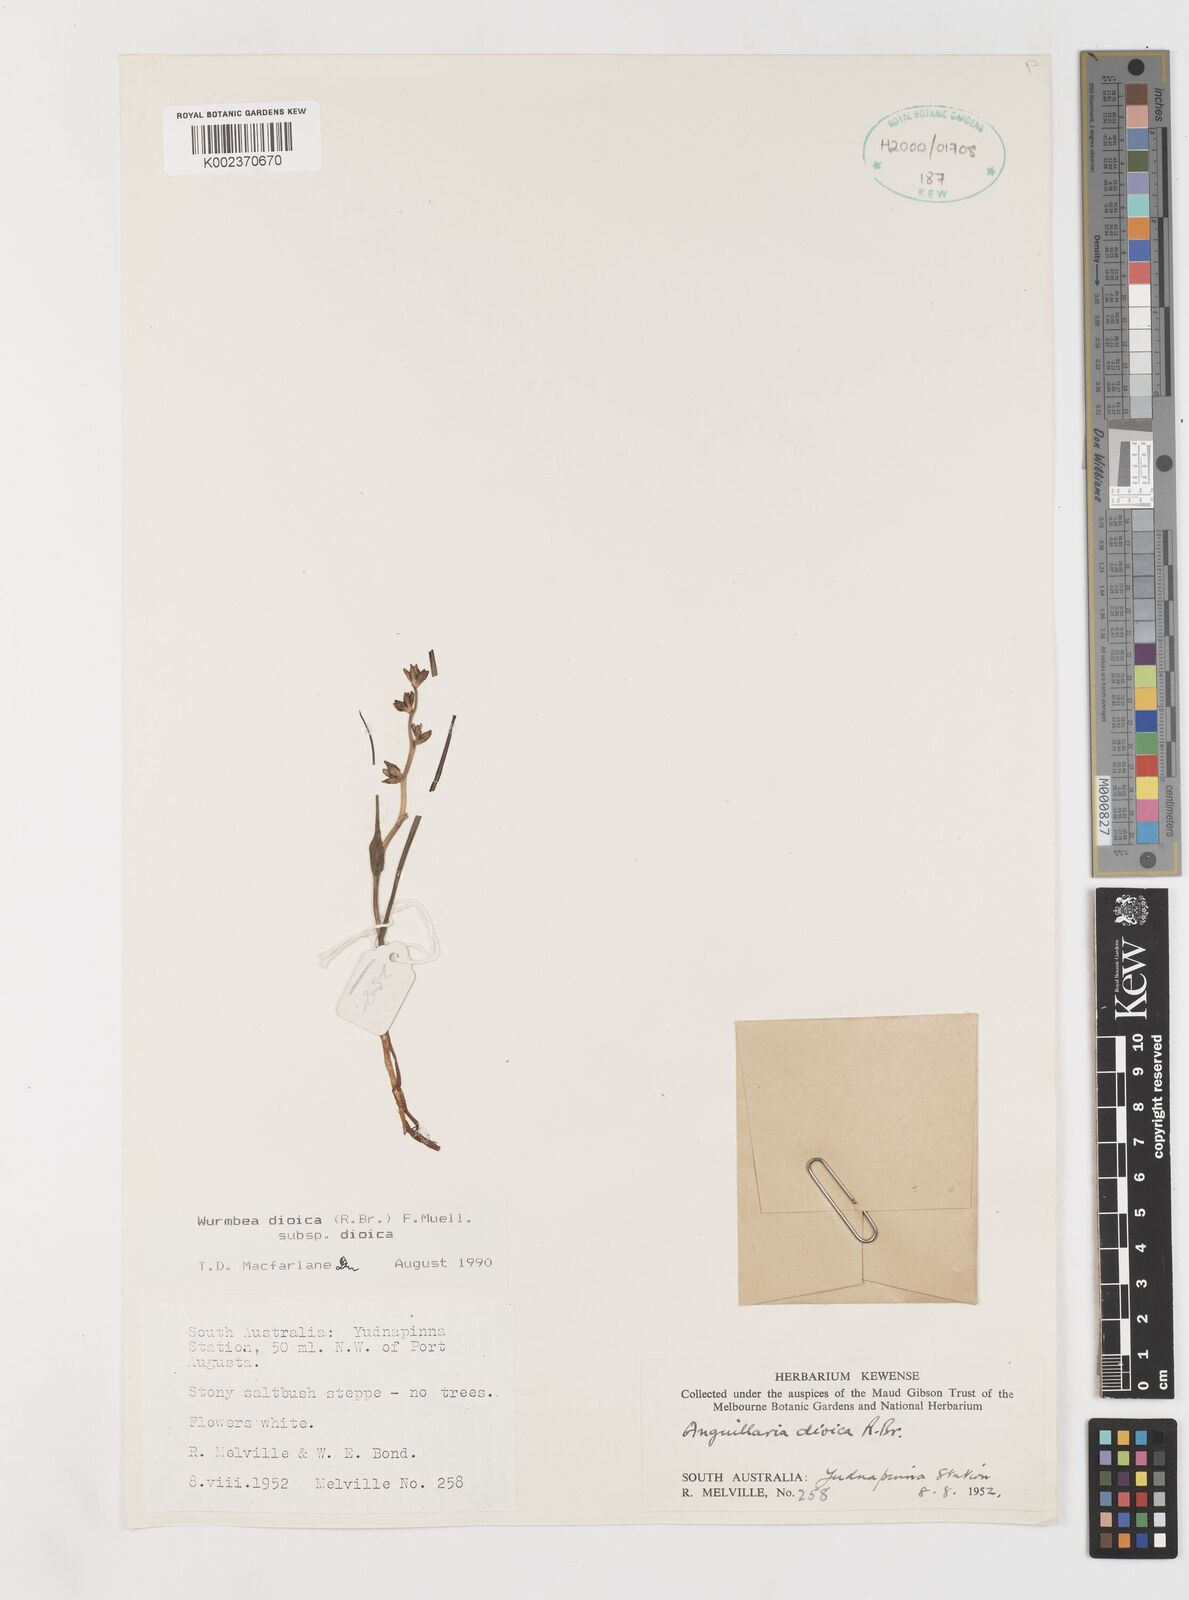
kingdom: Plantae
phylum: Tracheophyta
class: Liliopsida
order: Liliales
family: Colchicaceae
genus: Wurmbea
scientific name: Wurmbea dioica
